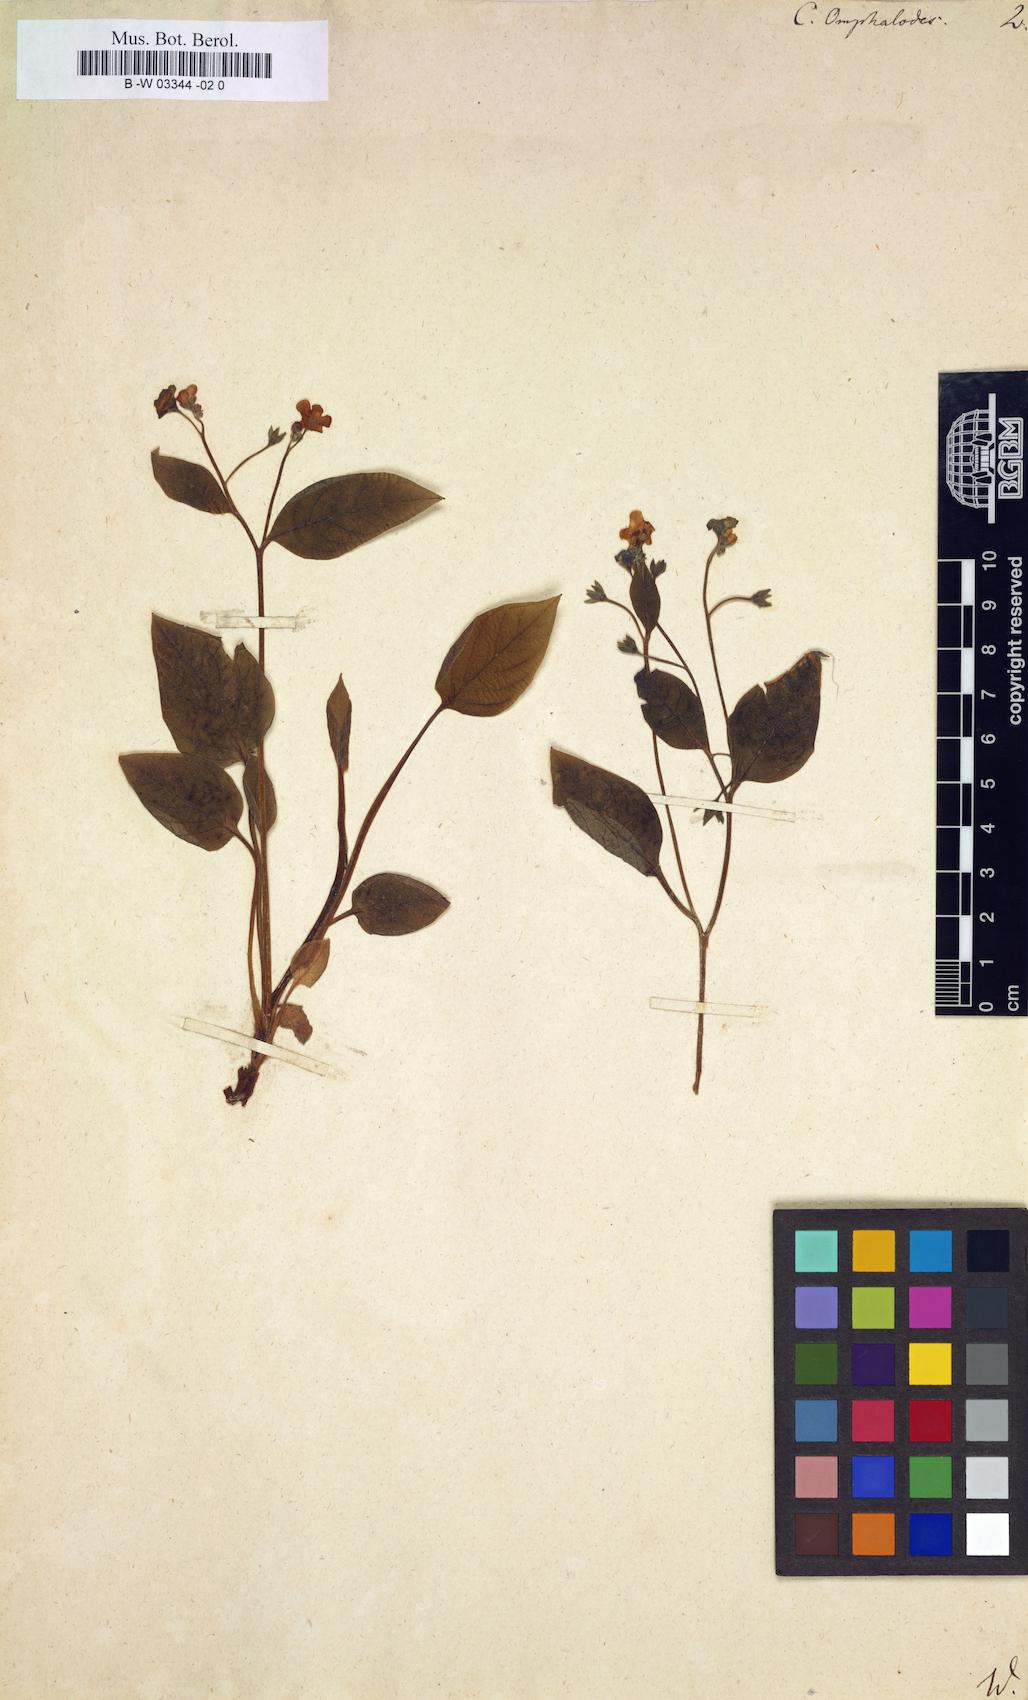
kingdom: Plantae
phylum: Tracheophyta
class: Magnoliopsida
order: Boraginales
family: Boraginaceae
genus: Omphalodes
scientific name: Omphalodes verna
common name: Blue-eyed-mary
